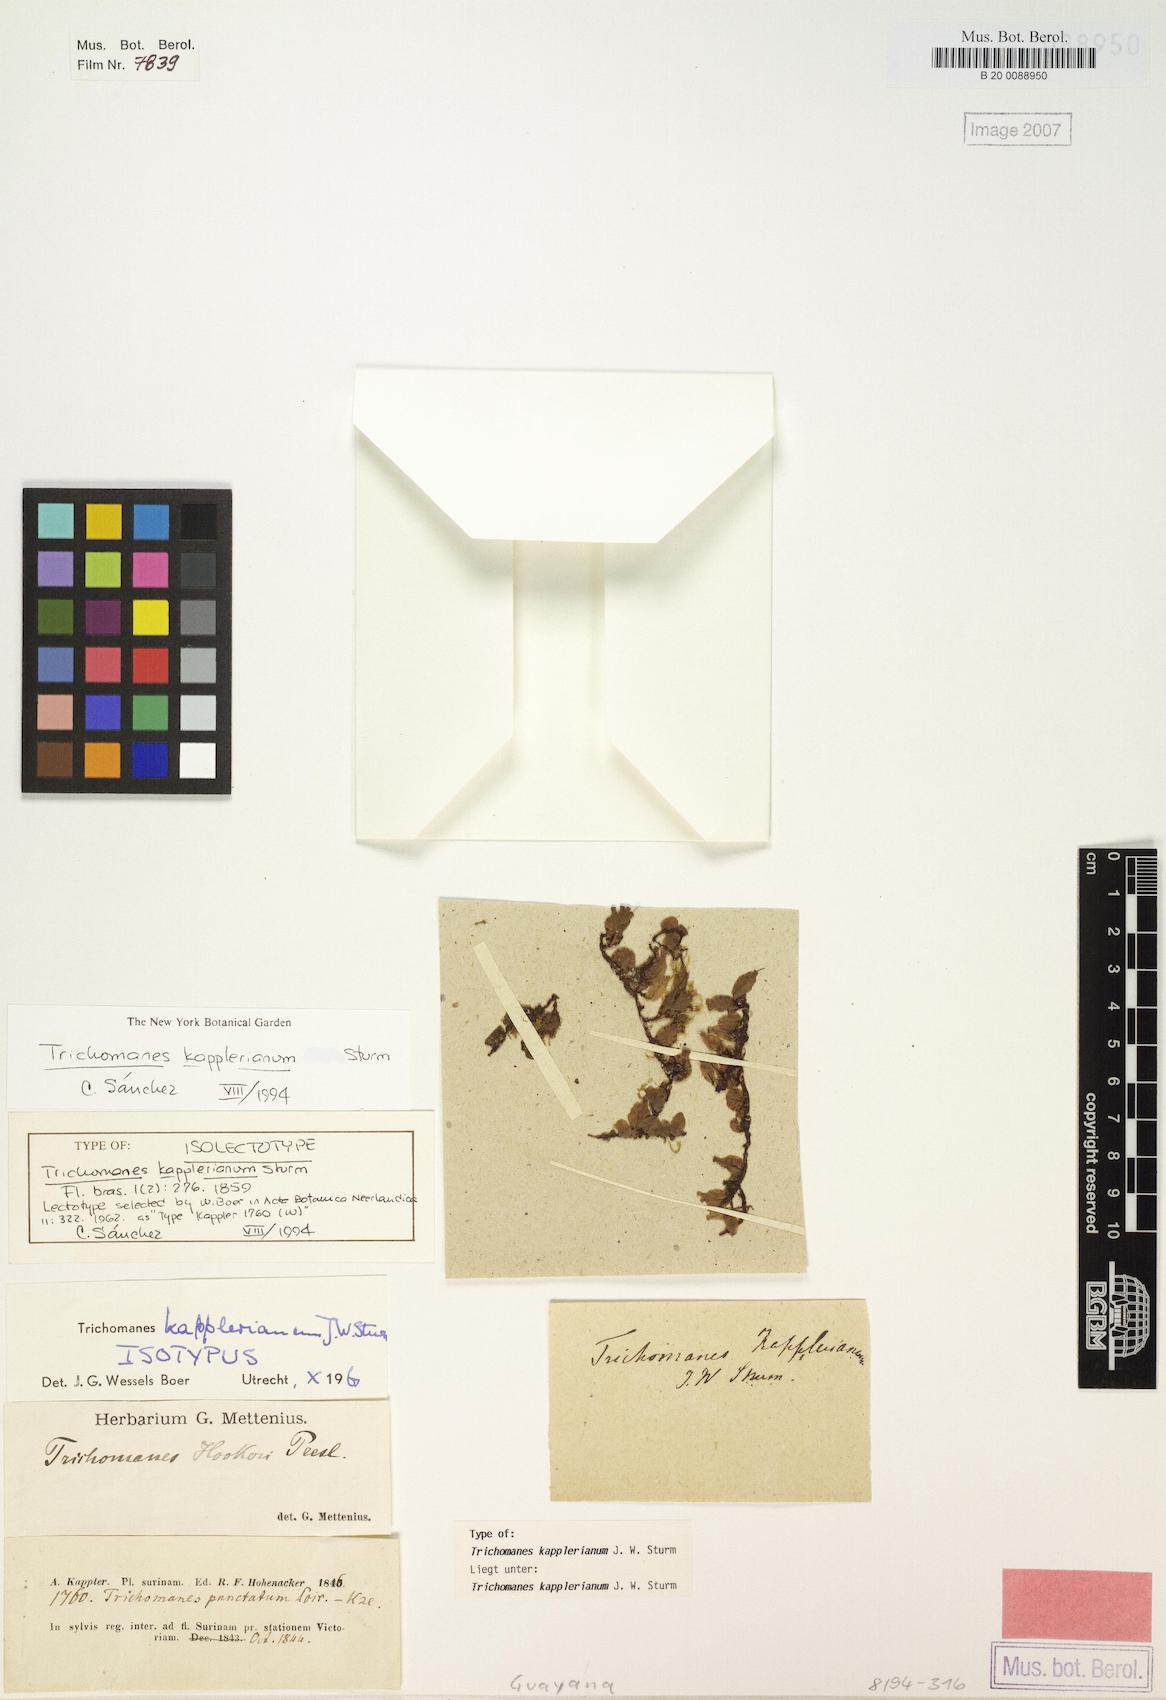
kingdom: Plantae
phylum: Tracheophyta
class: Polypodiopsida
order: Hymenophyllales
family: Hymenophyllaceae
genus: Didymoglossum
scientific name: Didymoglossum kapplerianum
